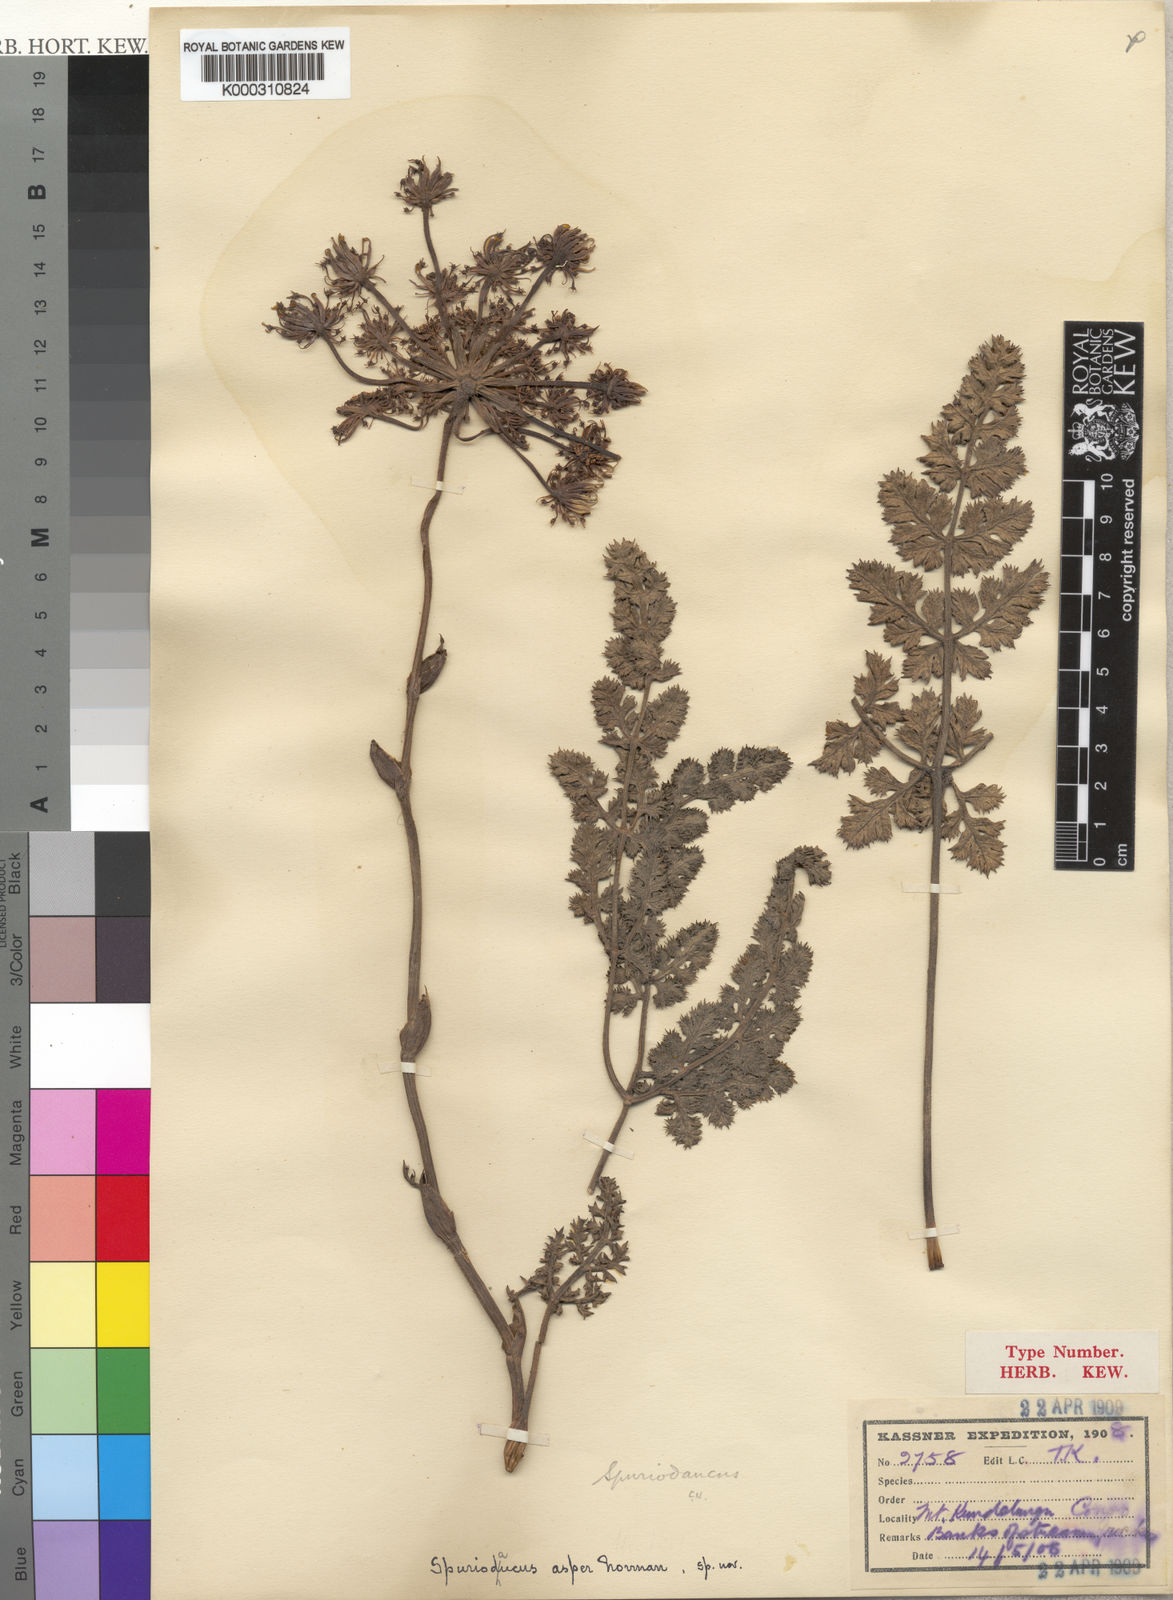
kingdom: Plantae
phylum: Tracheophyta
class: Magnoliopsida
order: Apiales
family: Apiaceae
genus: Physotrichia
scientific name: Physotrichia Spuriodaucus asper
